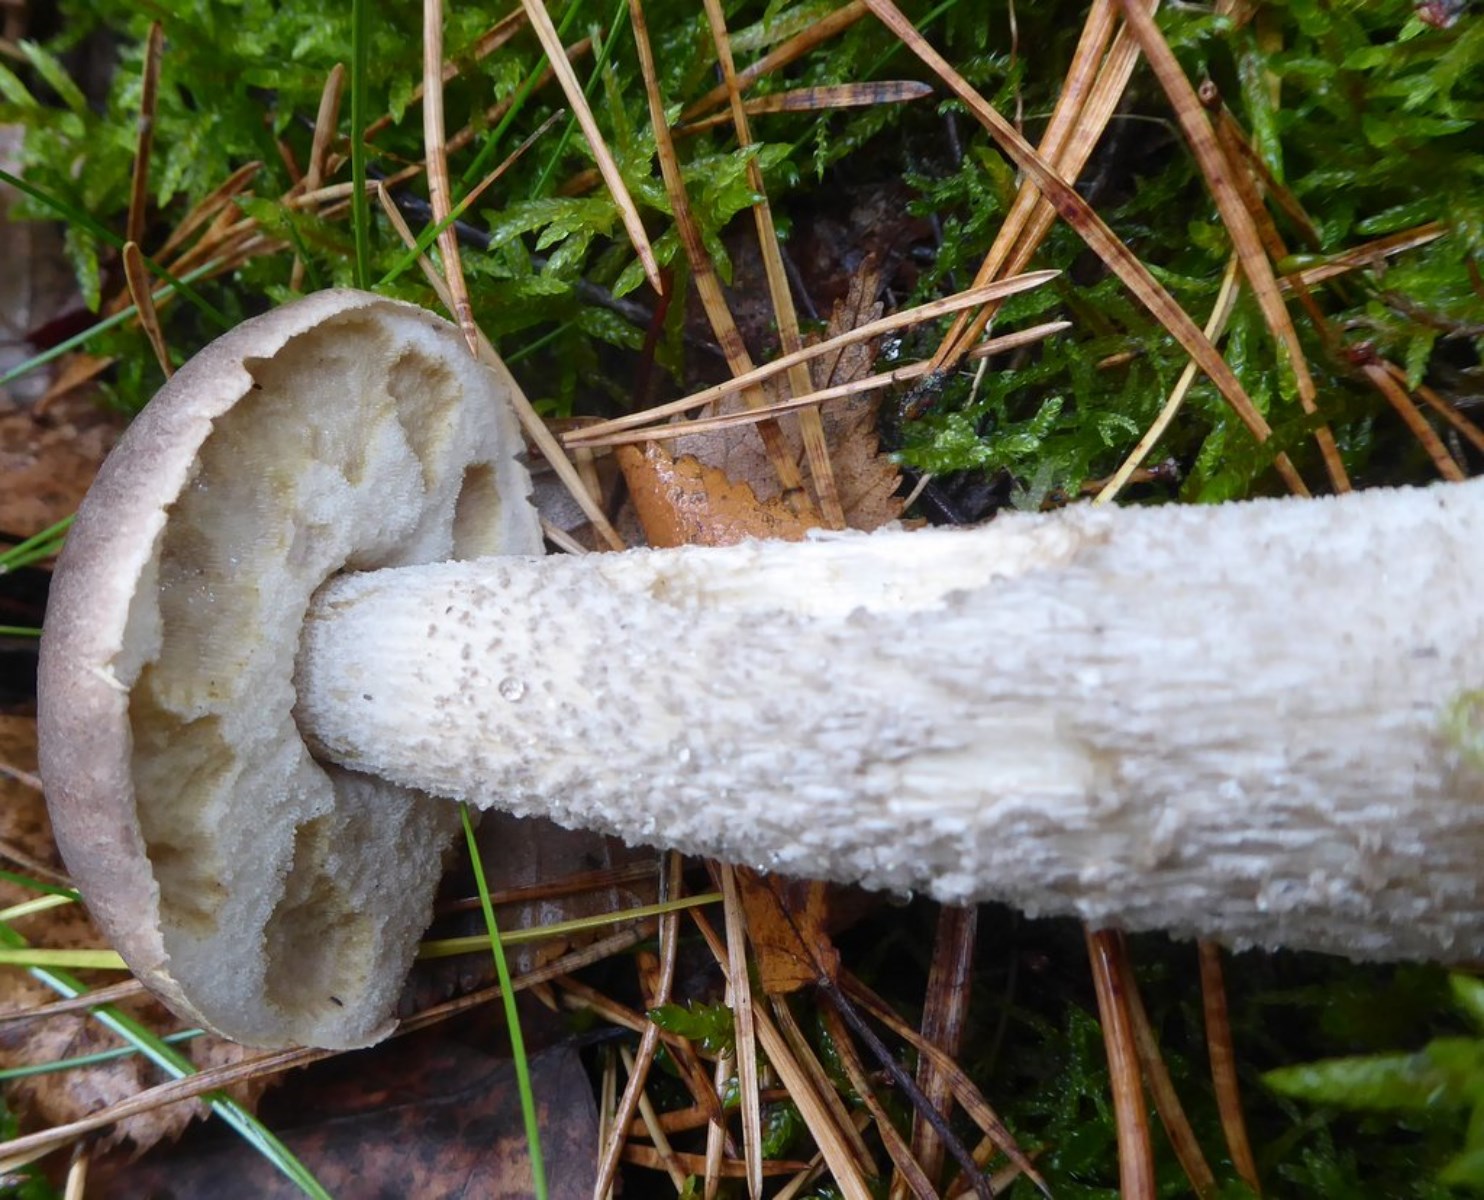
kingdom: Fungi
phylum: Basidiomycota
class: Agaricomycetes
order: Boletales
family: Boletaceae
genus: Leccinum
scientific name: Leccinum
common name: skælrørhat
